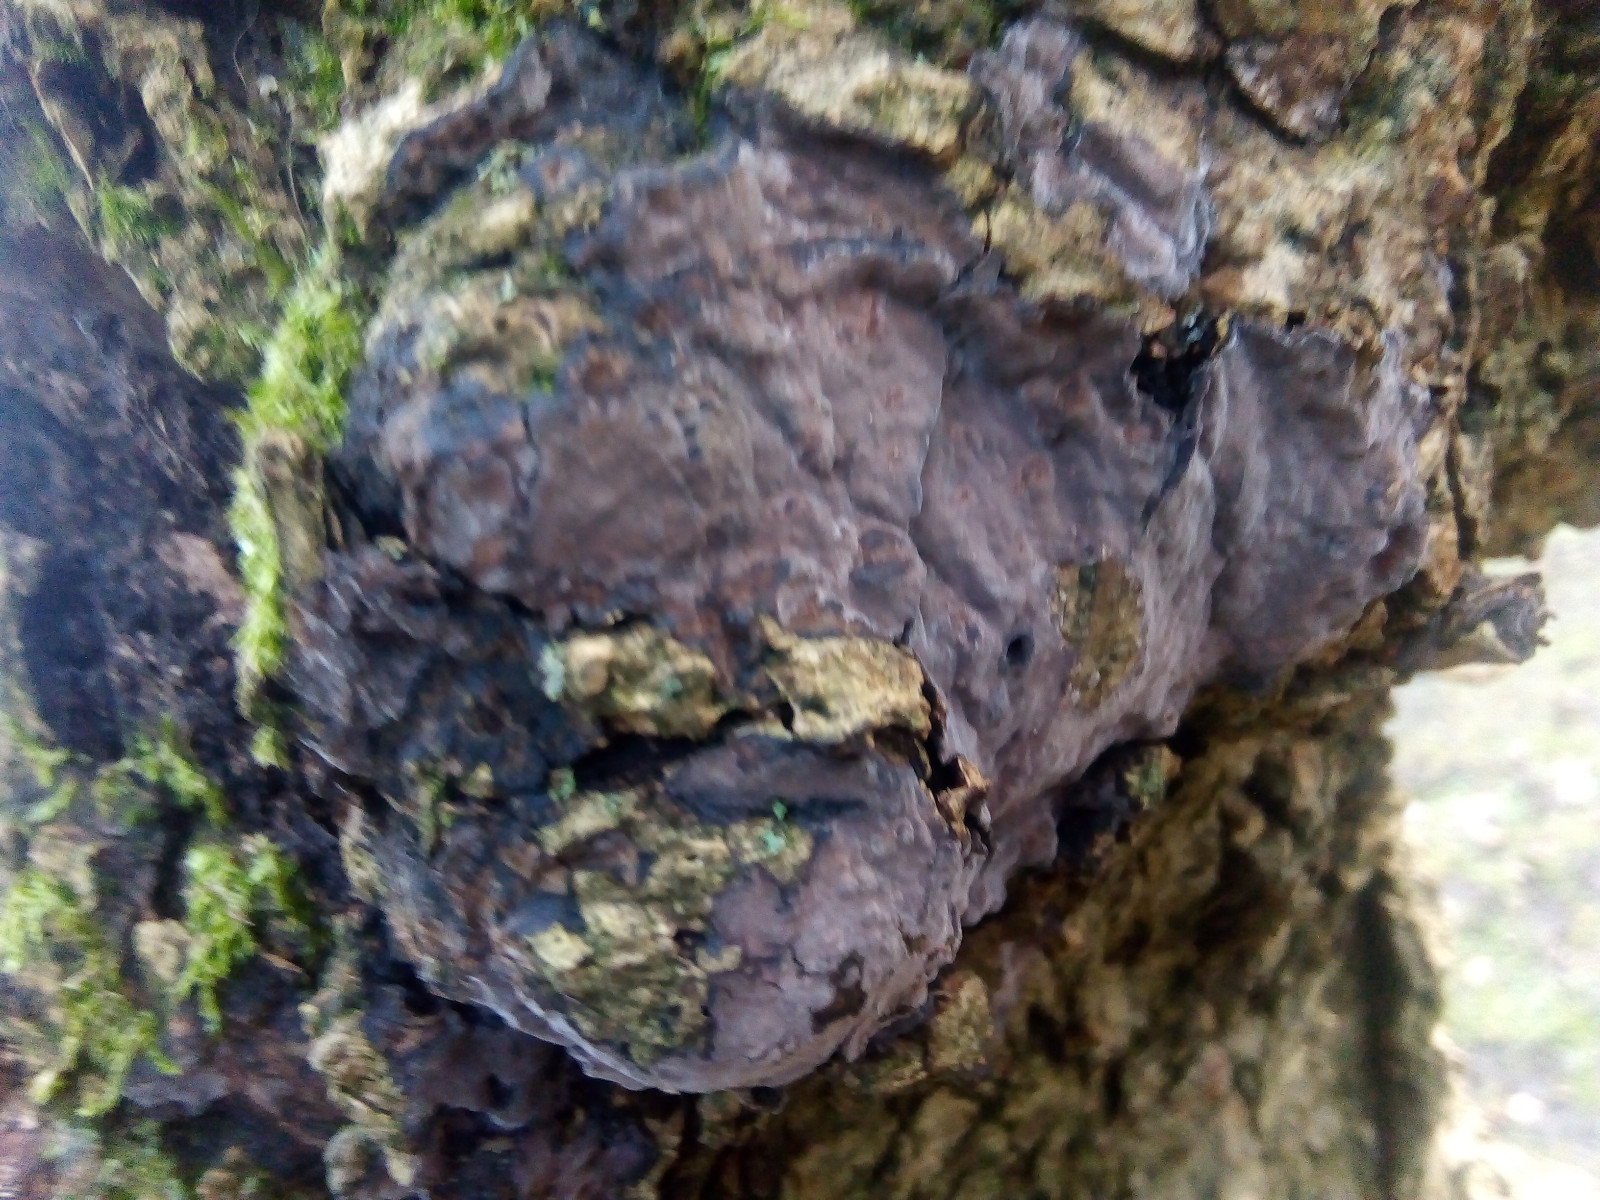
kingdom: Fungi
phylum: Basidiomycota
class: Agaricomycetes
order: Russulales
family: Peniophoraceae
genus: Peniophora
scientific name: Peniophora limitata
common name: mørkrandet voksskind
